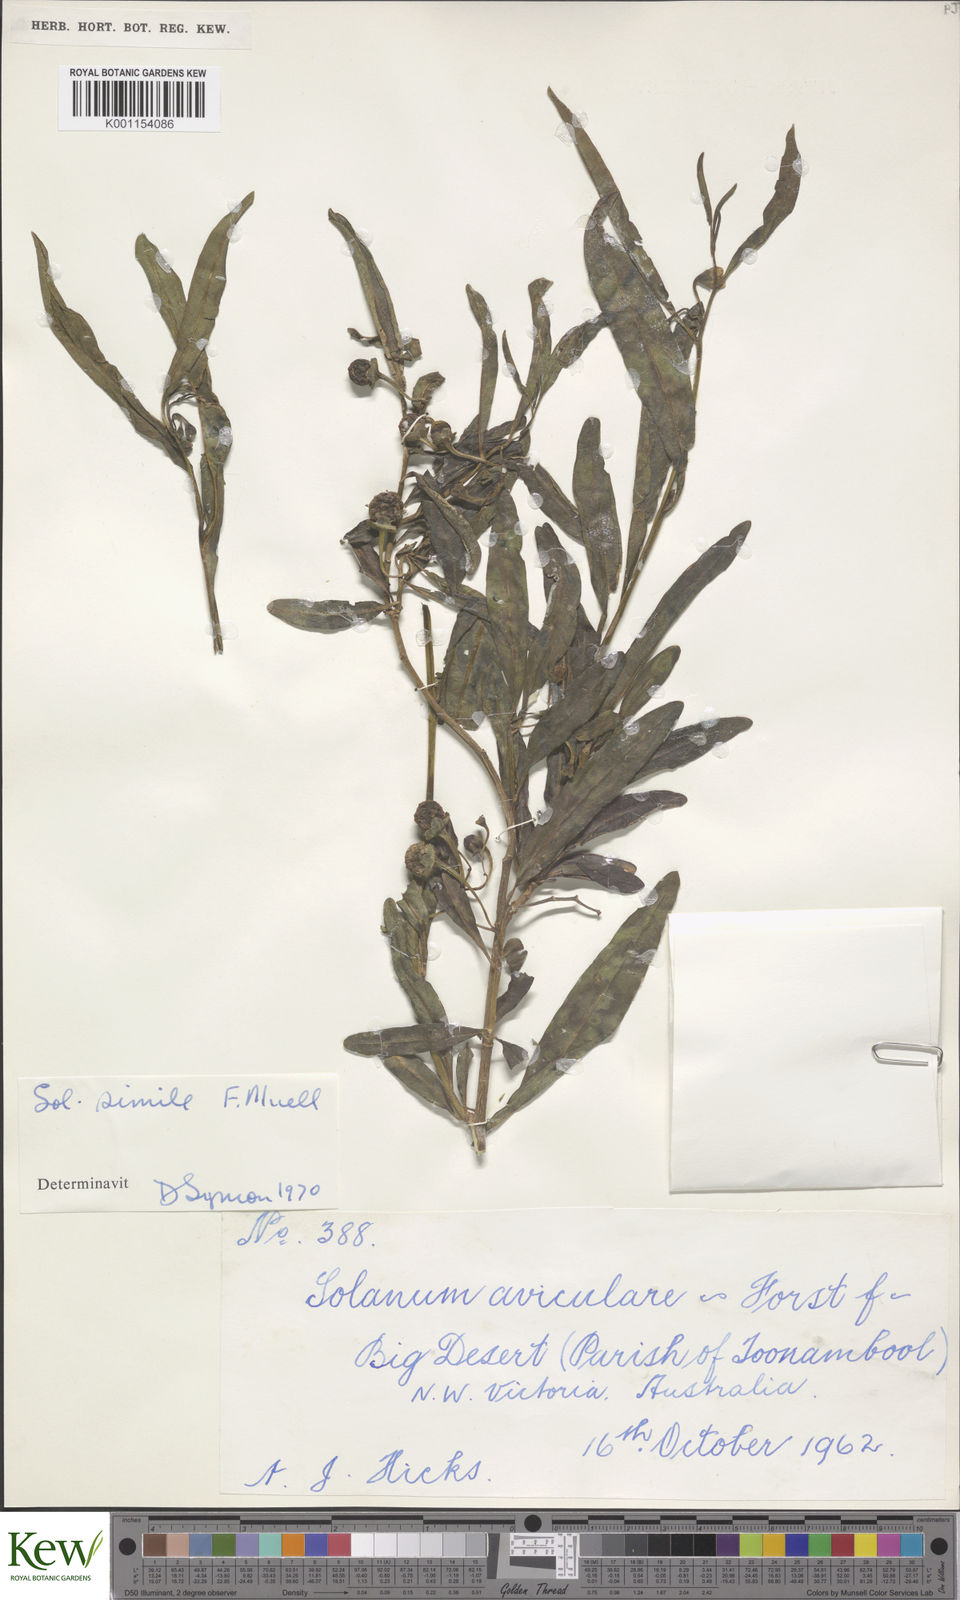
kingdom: Plantae
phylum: Tracheophyta
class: Magnoliopsida
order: Solanales
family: Solanaceae
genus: Solanum
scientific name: Solanum simile
